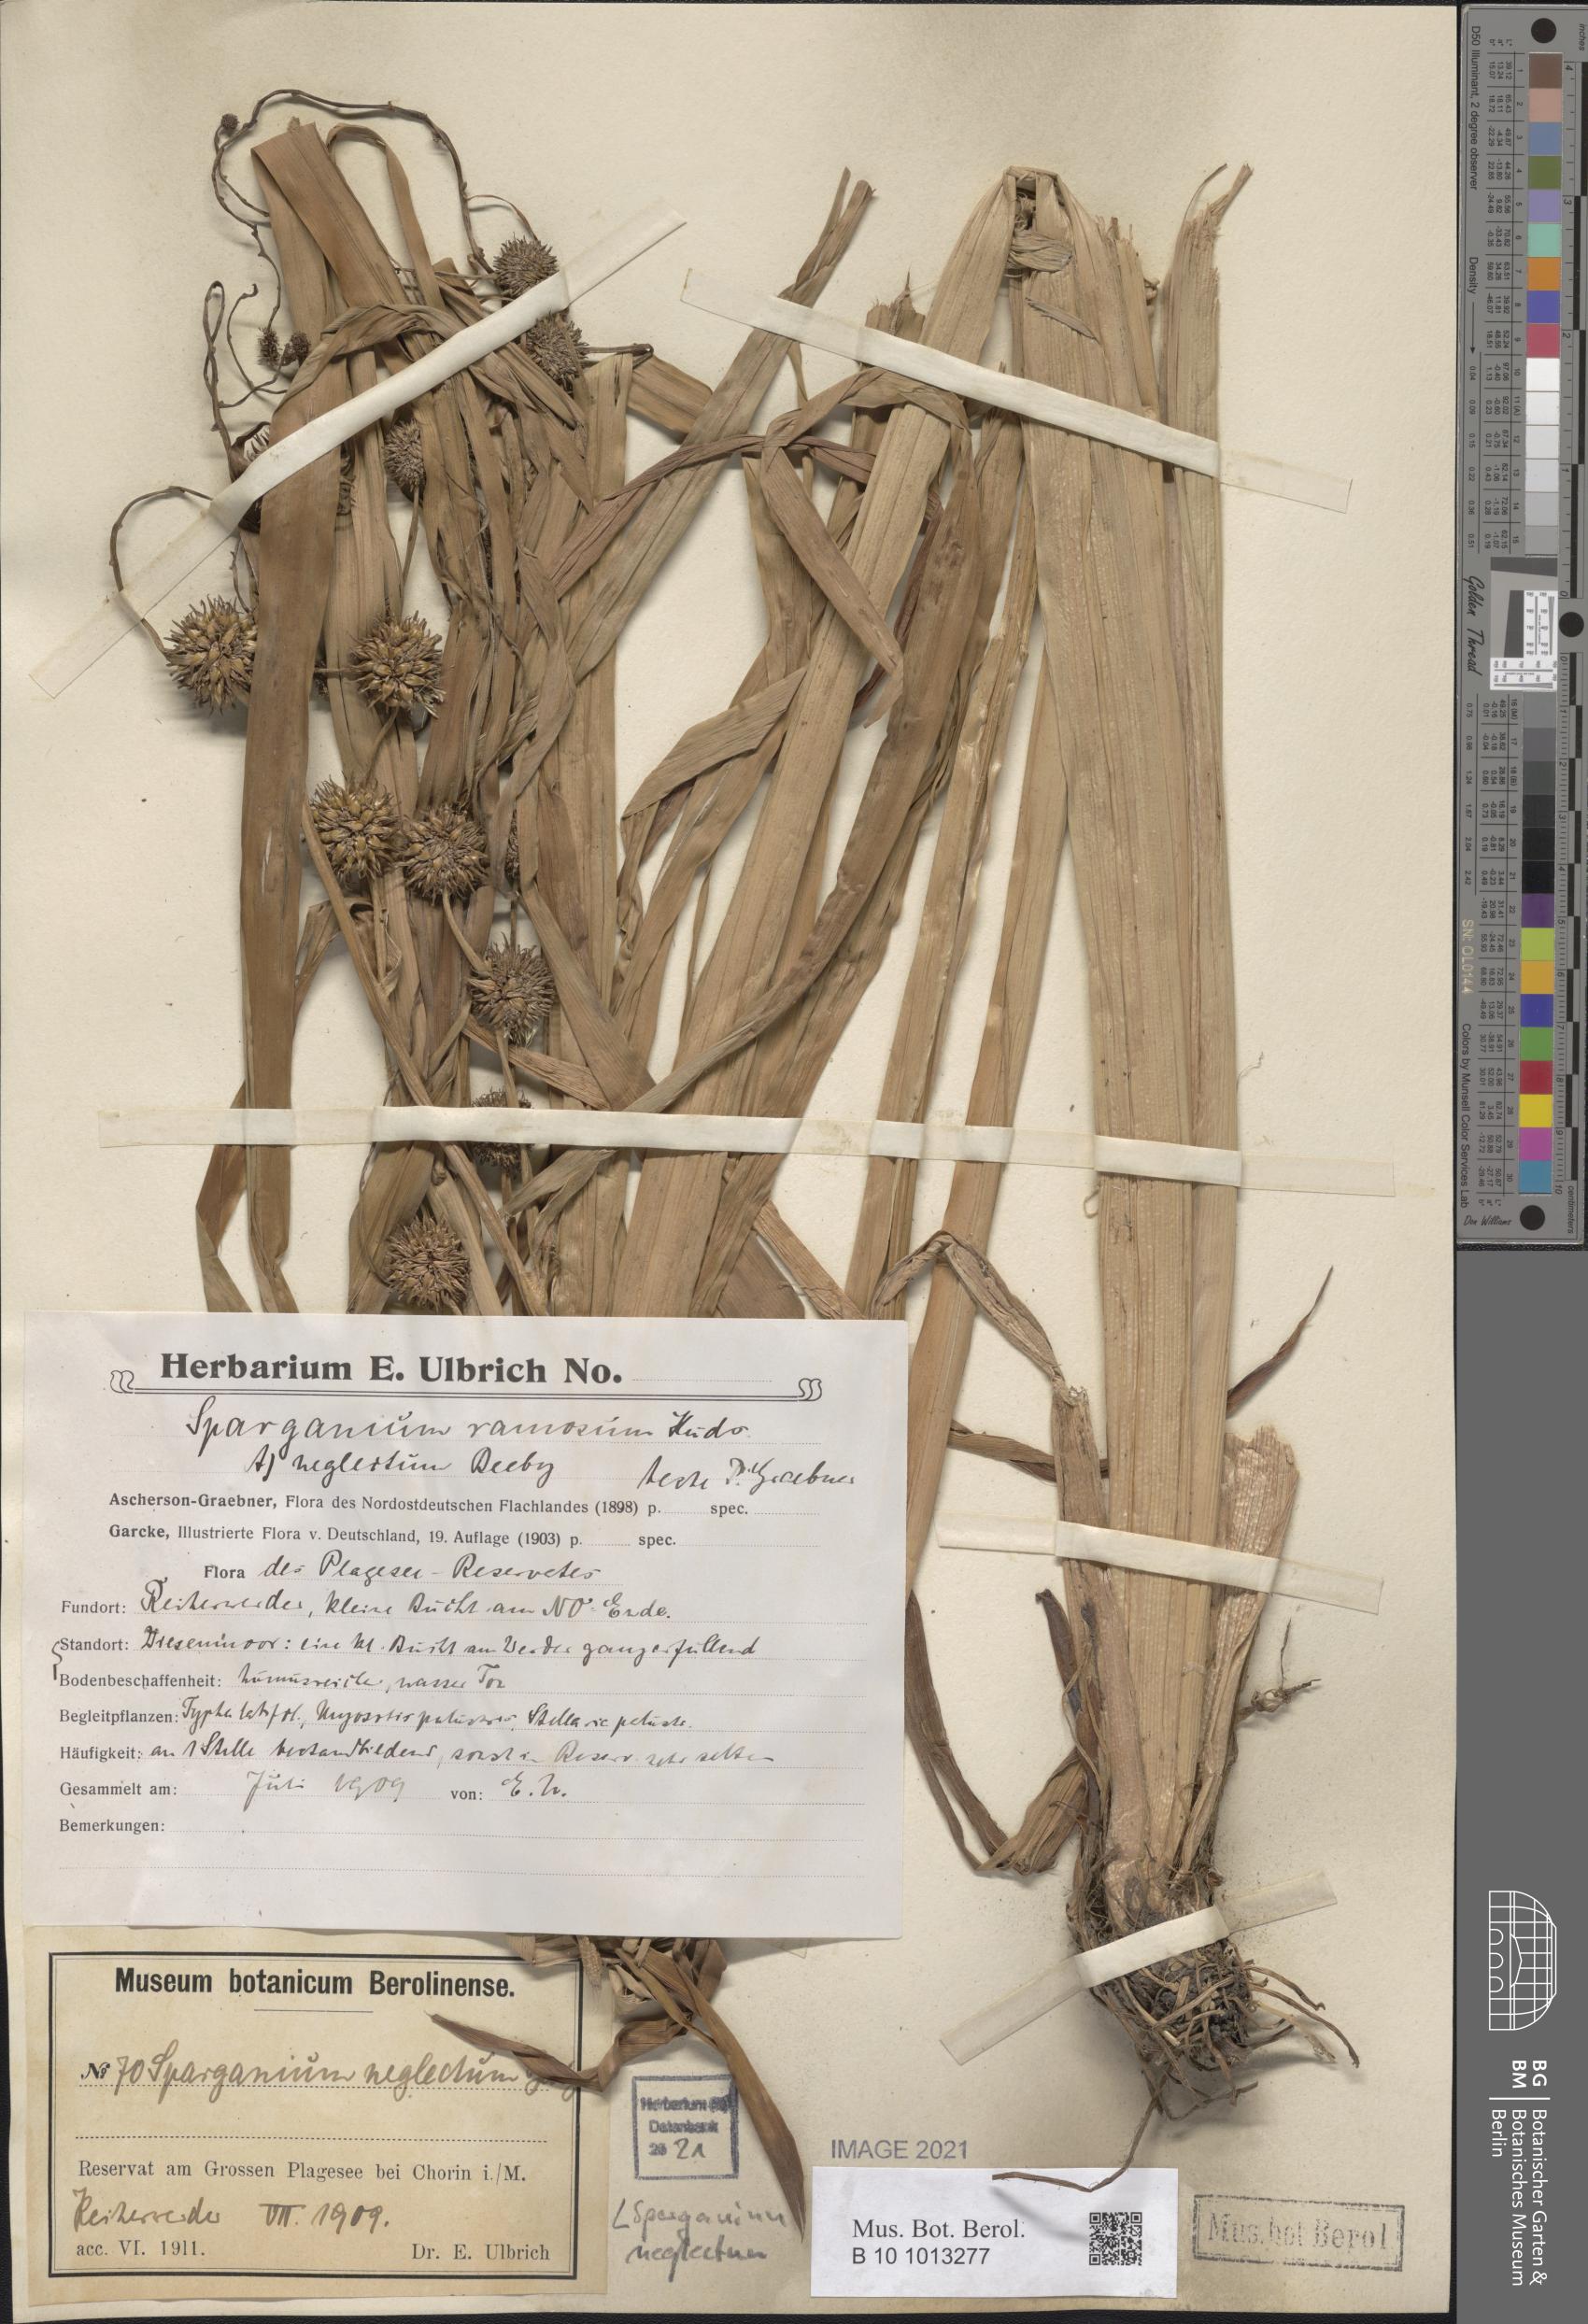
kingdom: Plantae
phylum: Tracheophyta
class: Liliopsida
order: Poales
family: Typhaceae
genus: Sparganium
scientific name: Sparganium erectum
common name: Branched bur-reed
